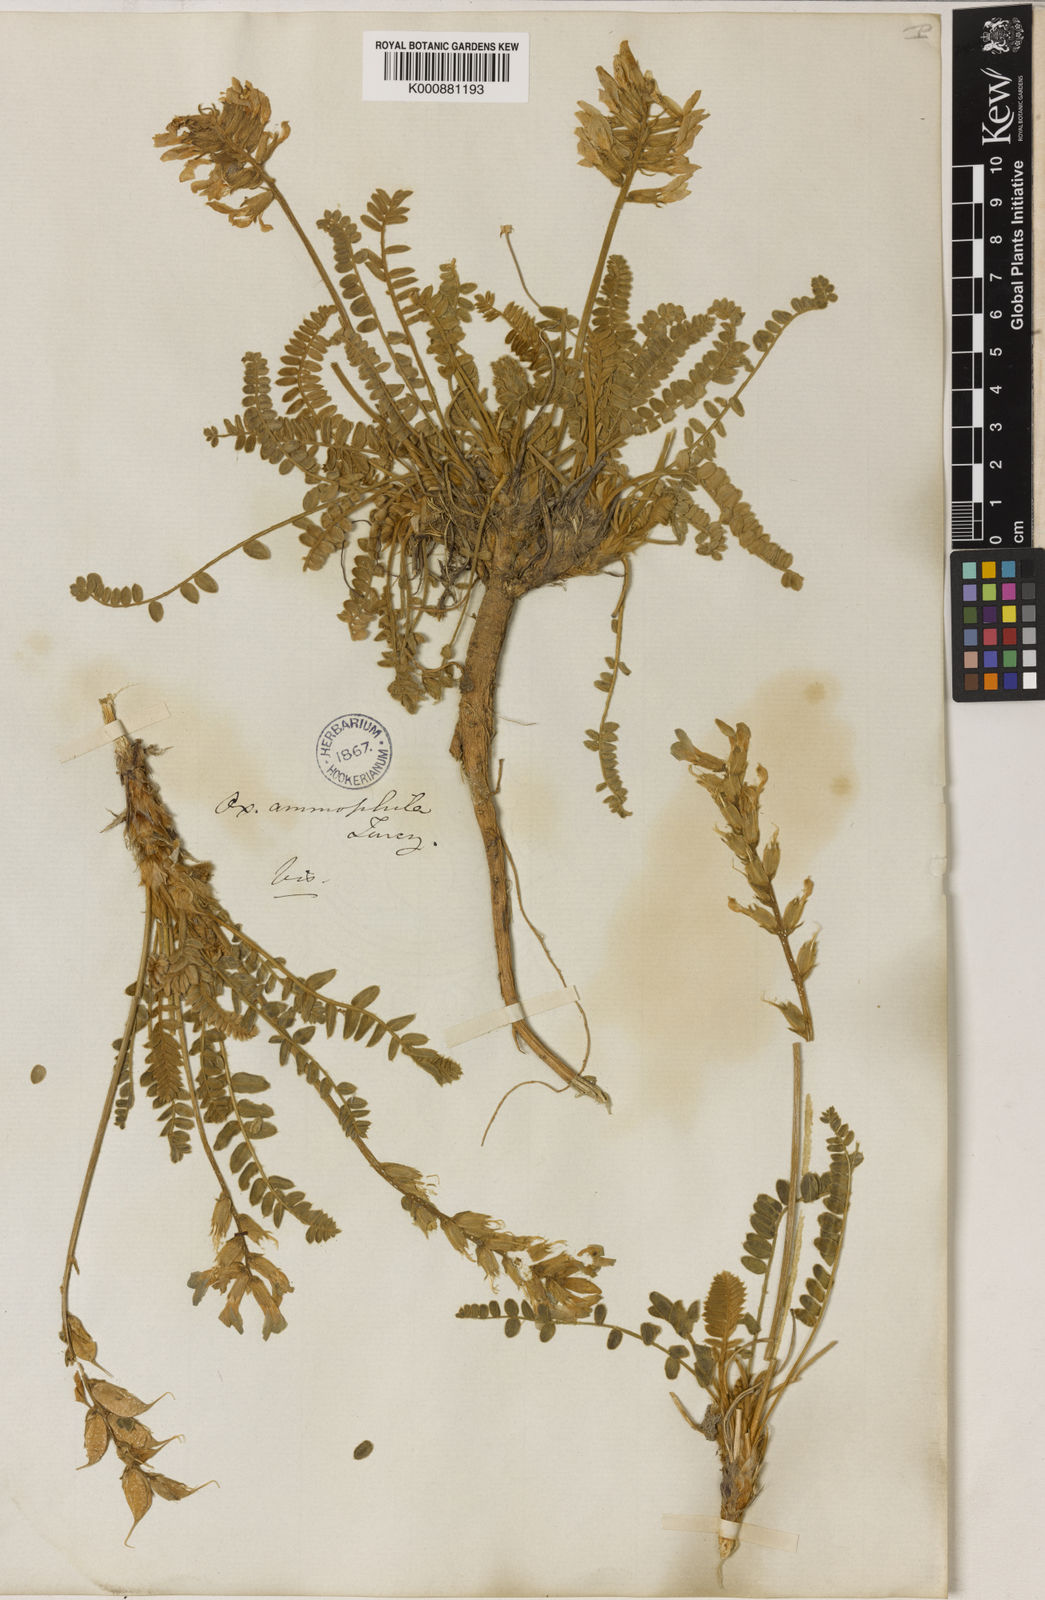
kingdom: Plantae
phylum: Tracheophyta
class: Magnoliopsida
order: Fabales
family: Fabaceae
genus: Oxytropis
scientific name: Oxytropis ammophila
